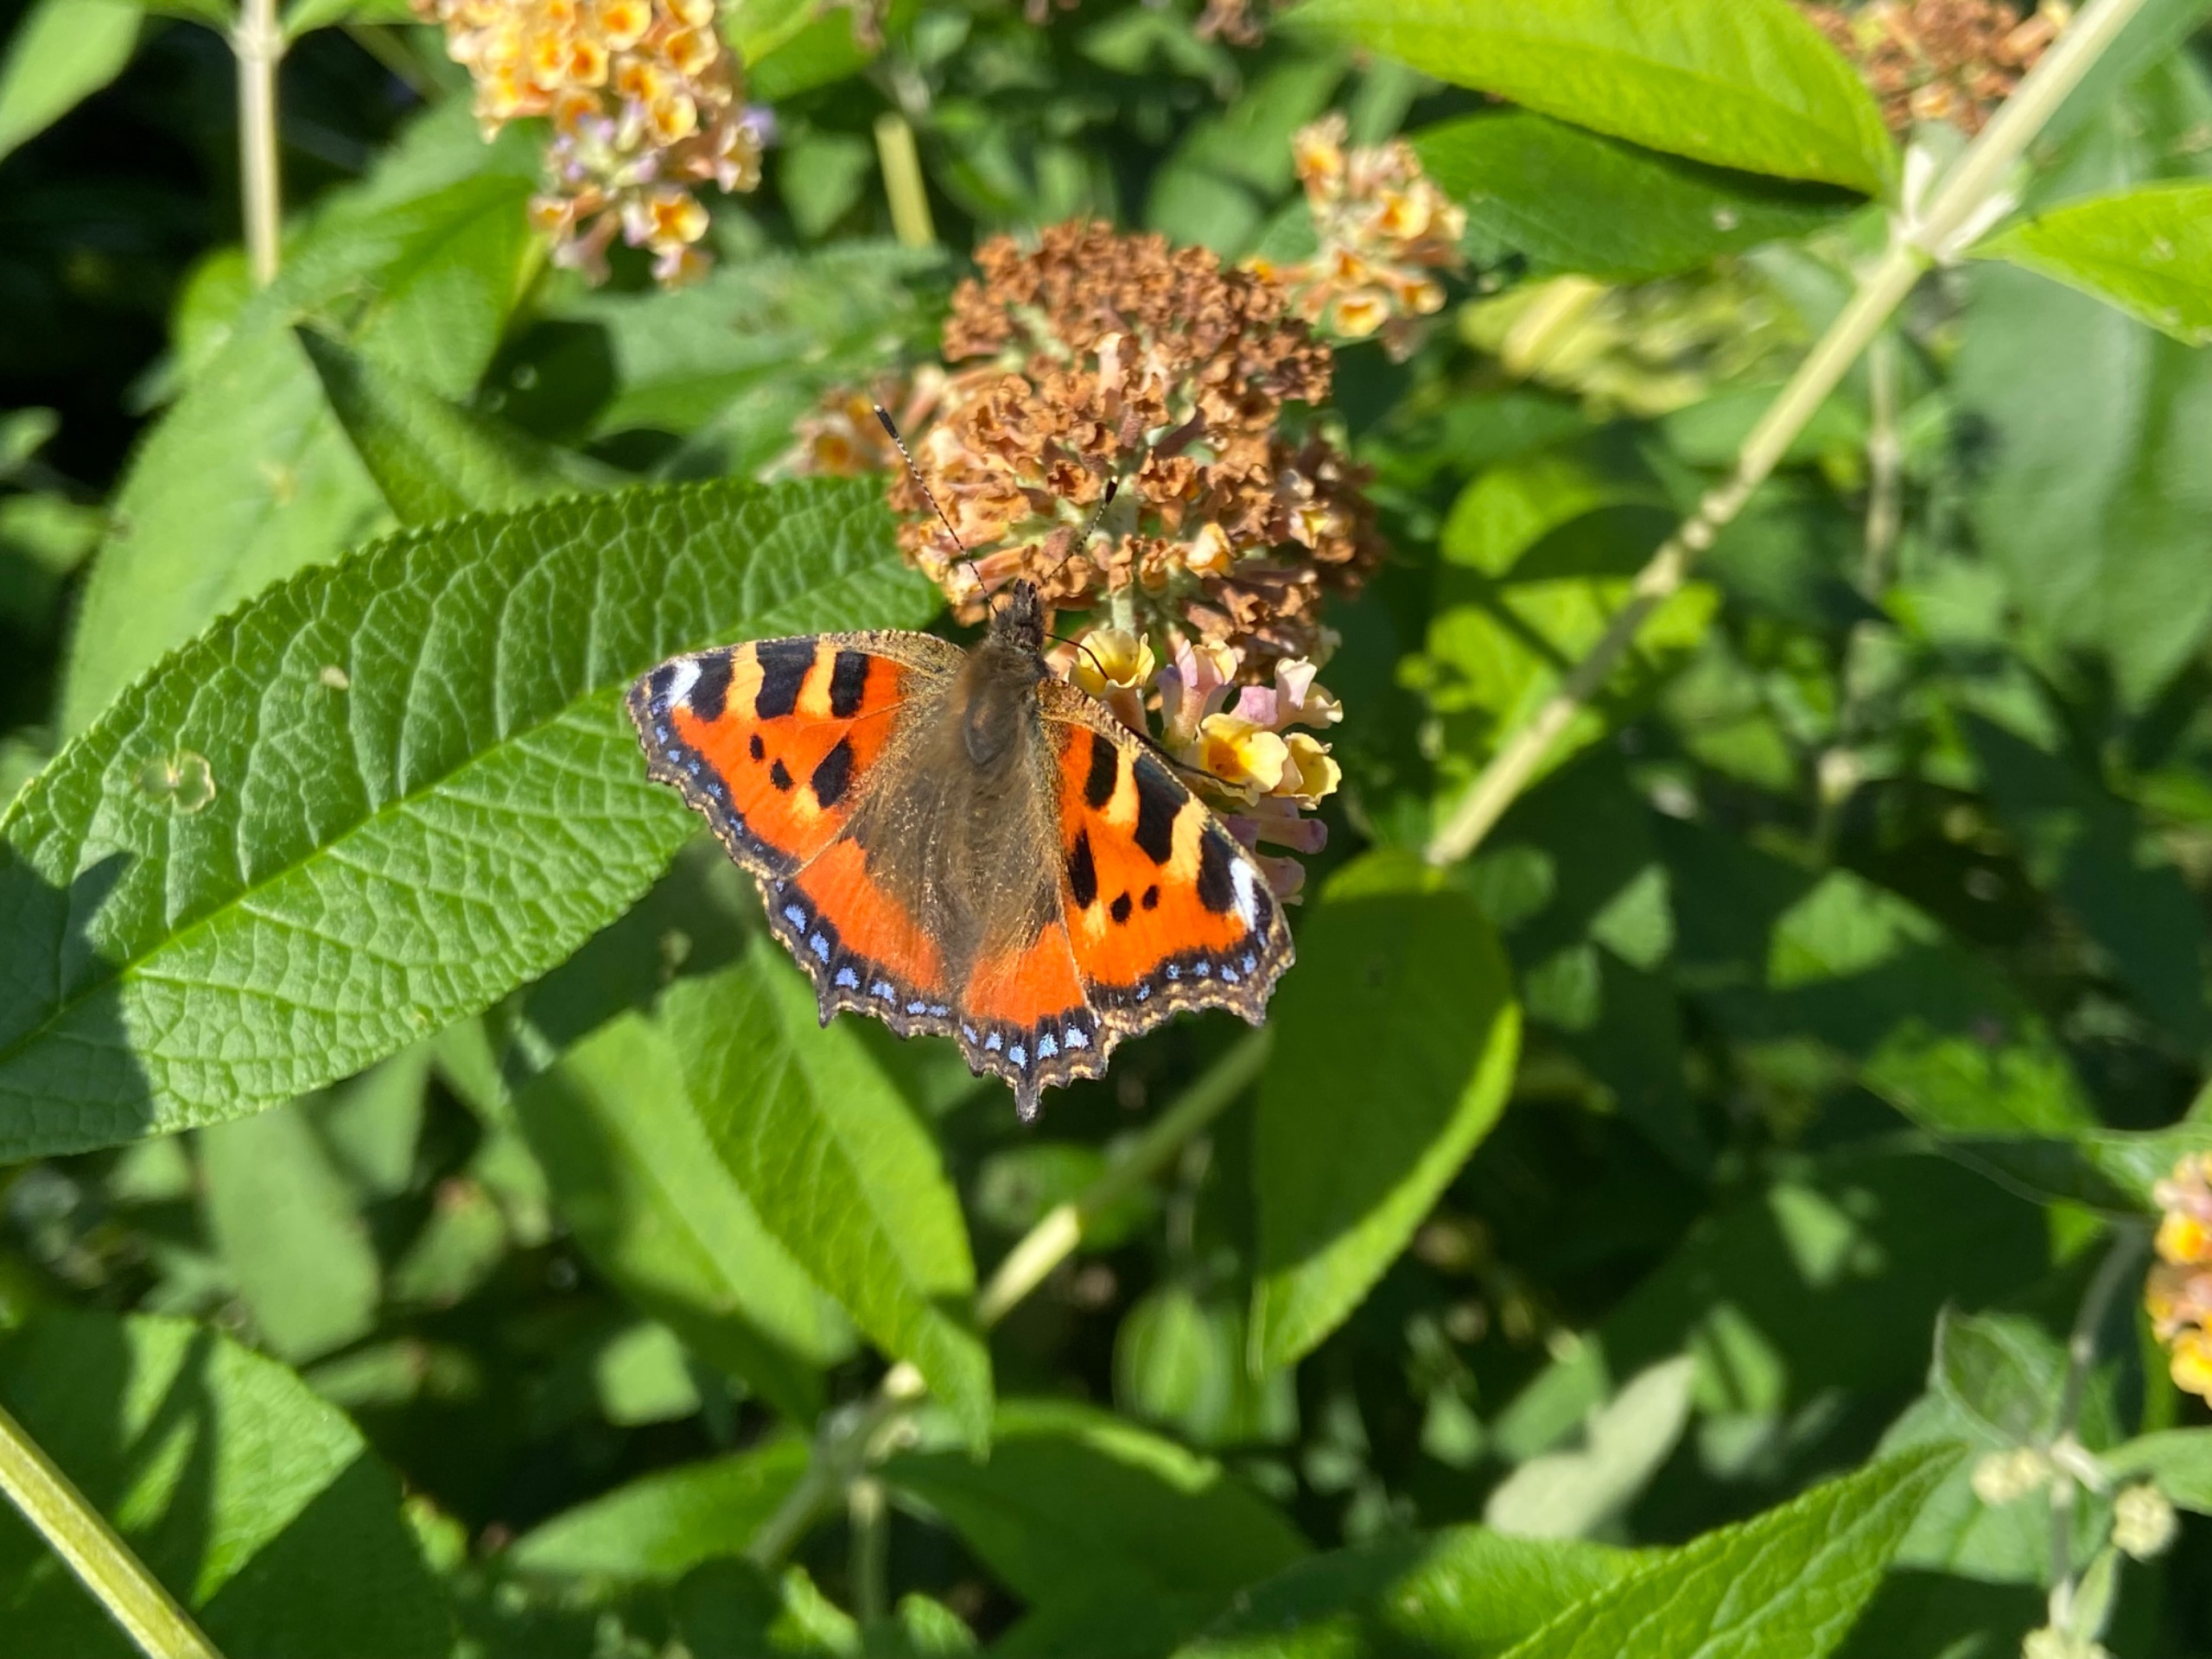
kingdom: Animalia
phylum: Arthropoda
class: Insecta
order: Lepidoptera
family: Nymphalidae
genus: Aglais
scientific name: Aglais urticae
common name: Nældens takvinge
